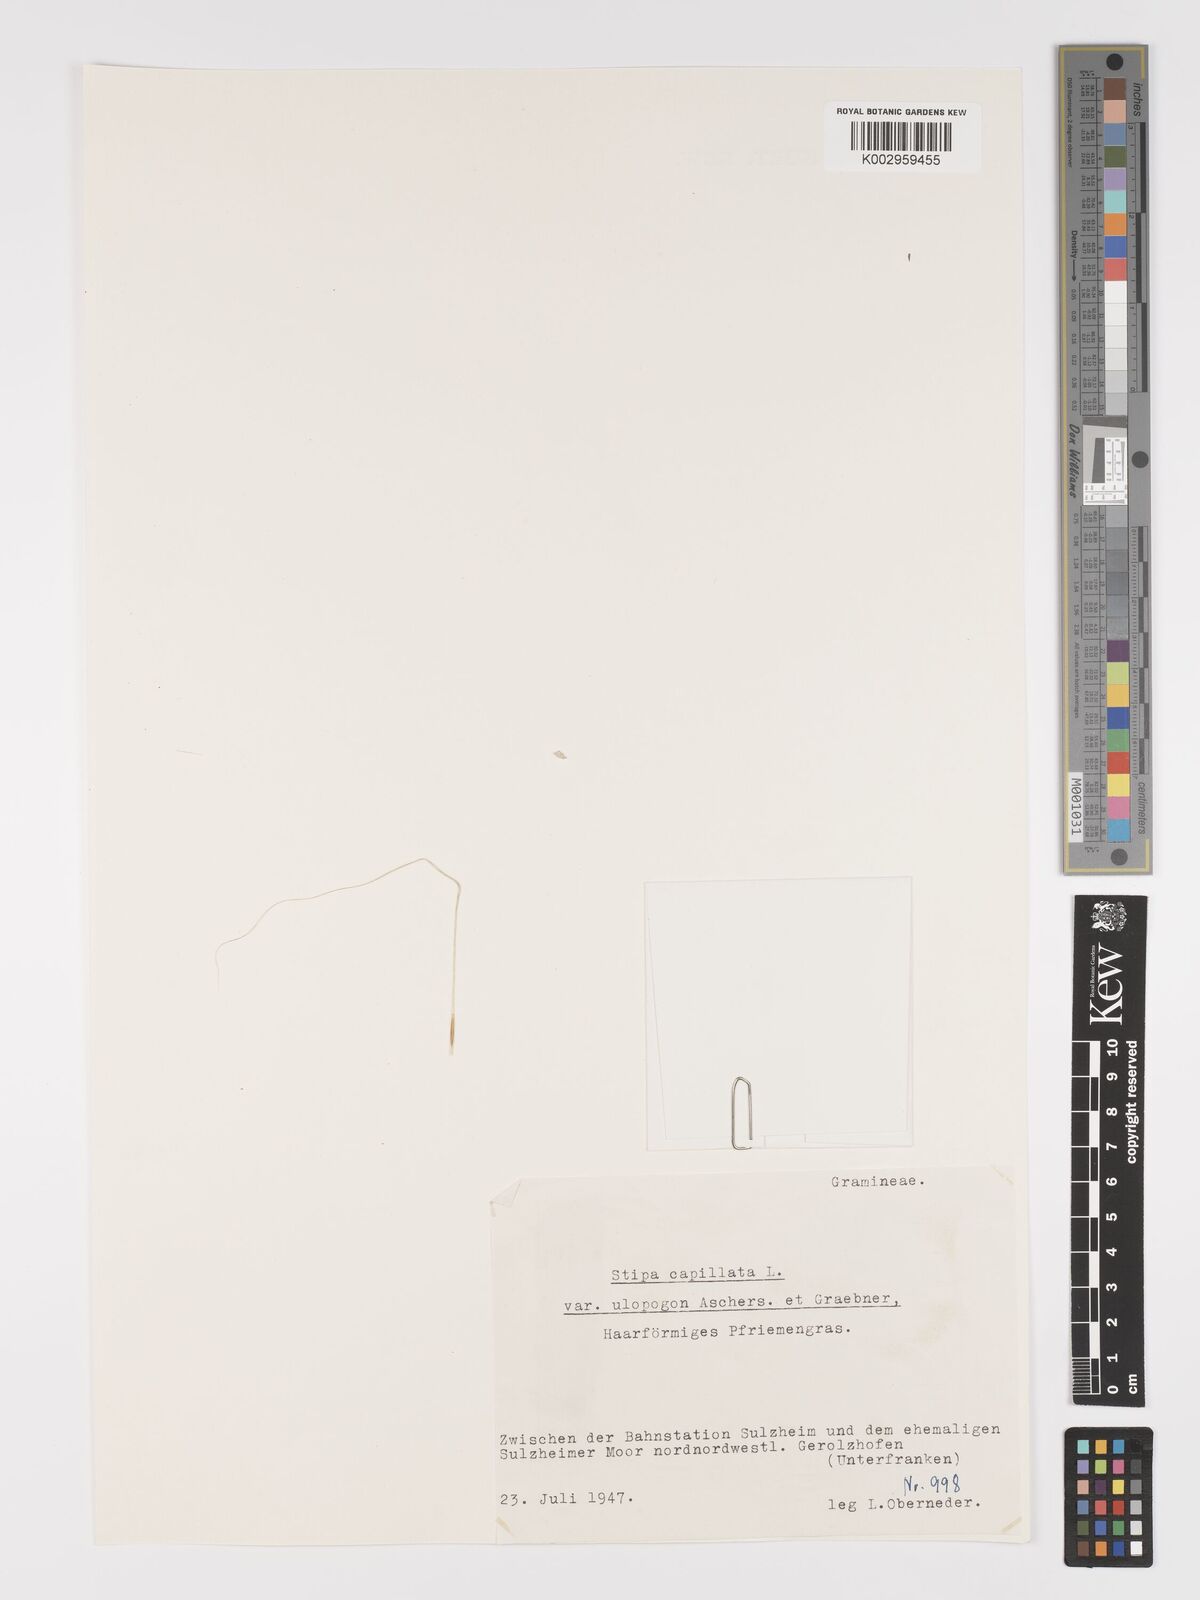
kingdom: Plantae
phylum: Tracheophyta
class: Liliopsida
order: Poales
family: Poaceae
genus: Stipa
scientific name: Stipa capillata
